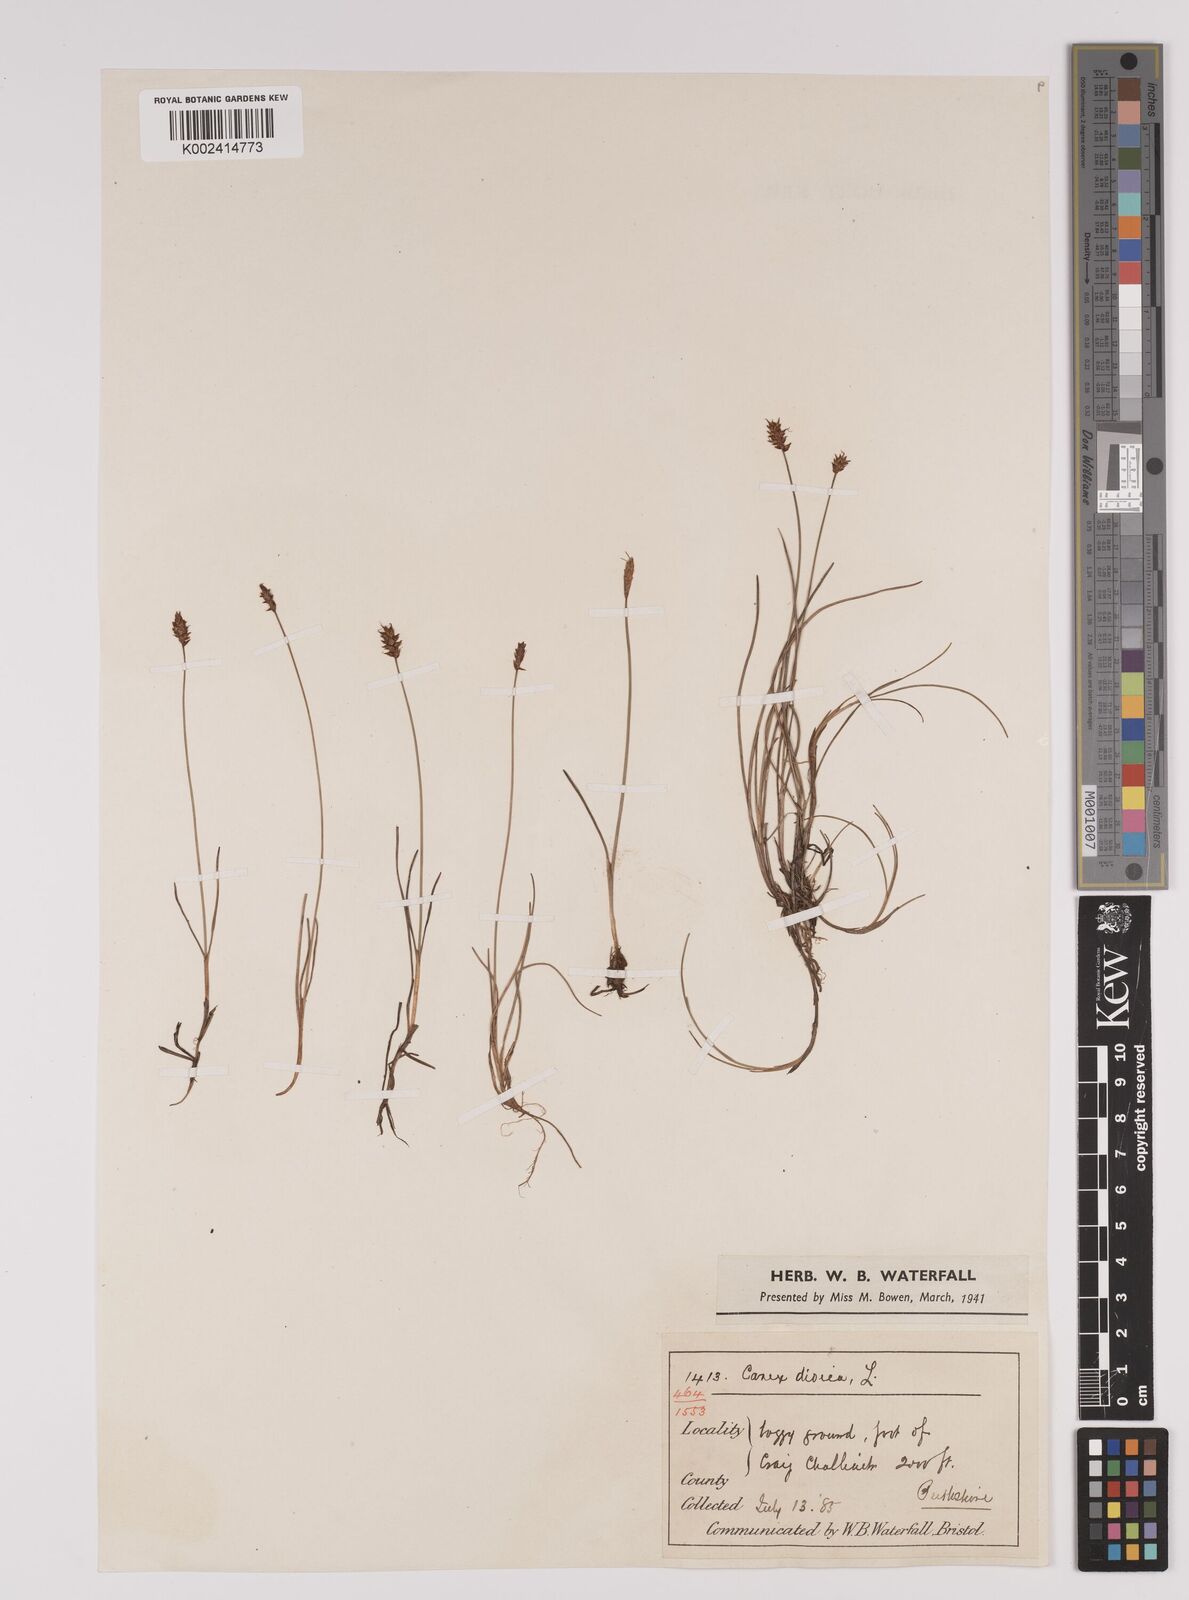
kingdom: Plantae
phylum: Tracheophyta
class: Liliopsida
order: Poales
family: Cyperaceae
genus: Carex
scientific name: Carex dioica
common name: Dioecious sedge
